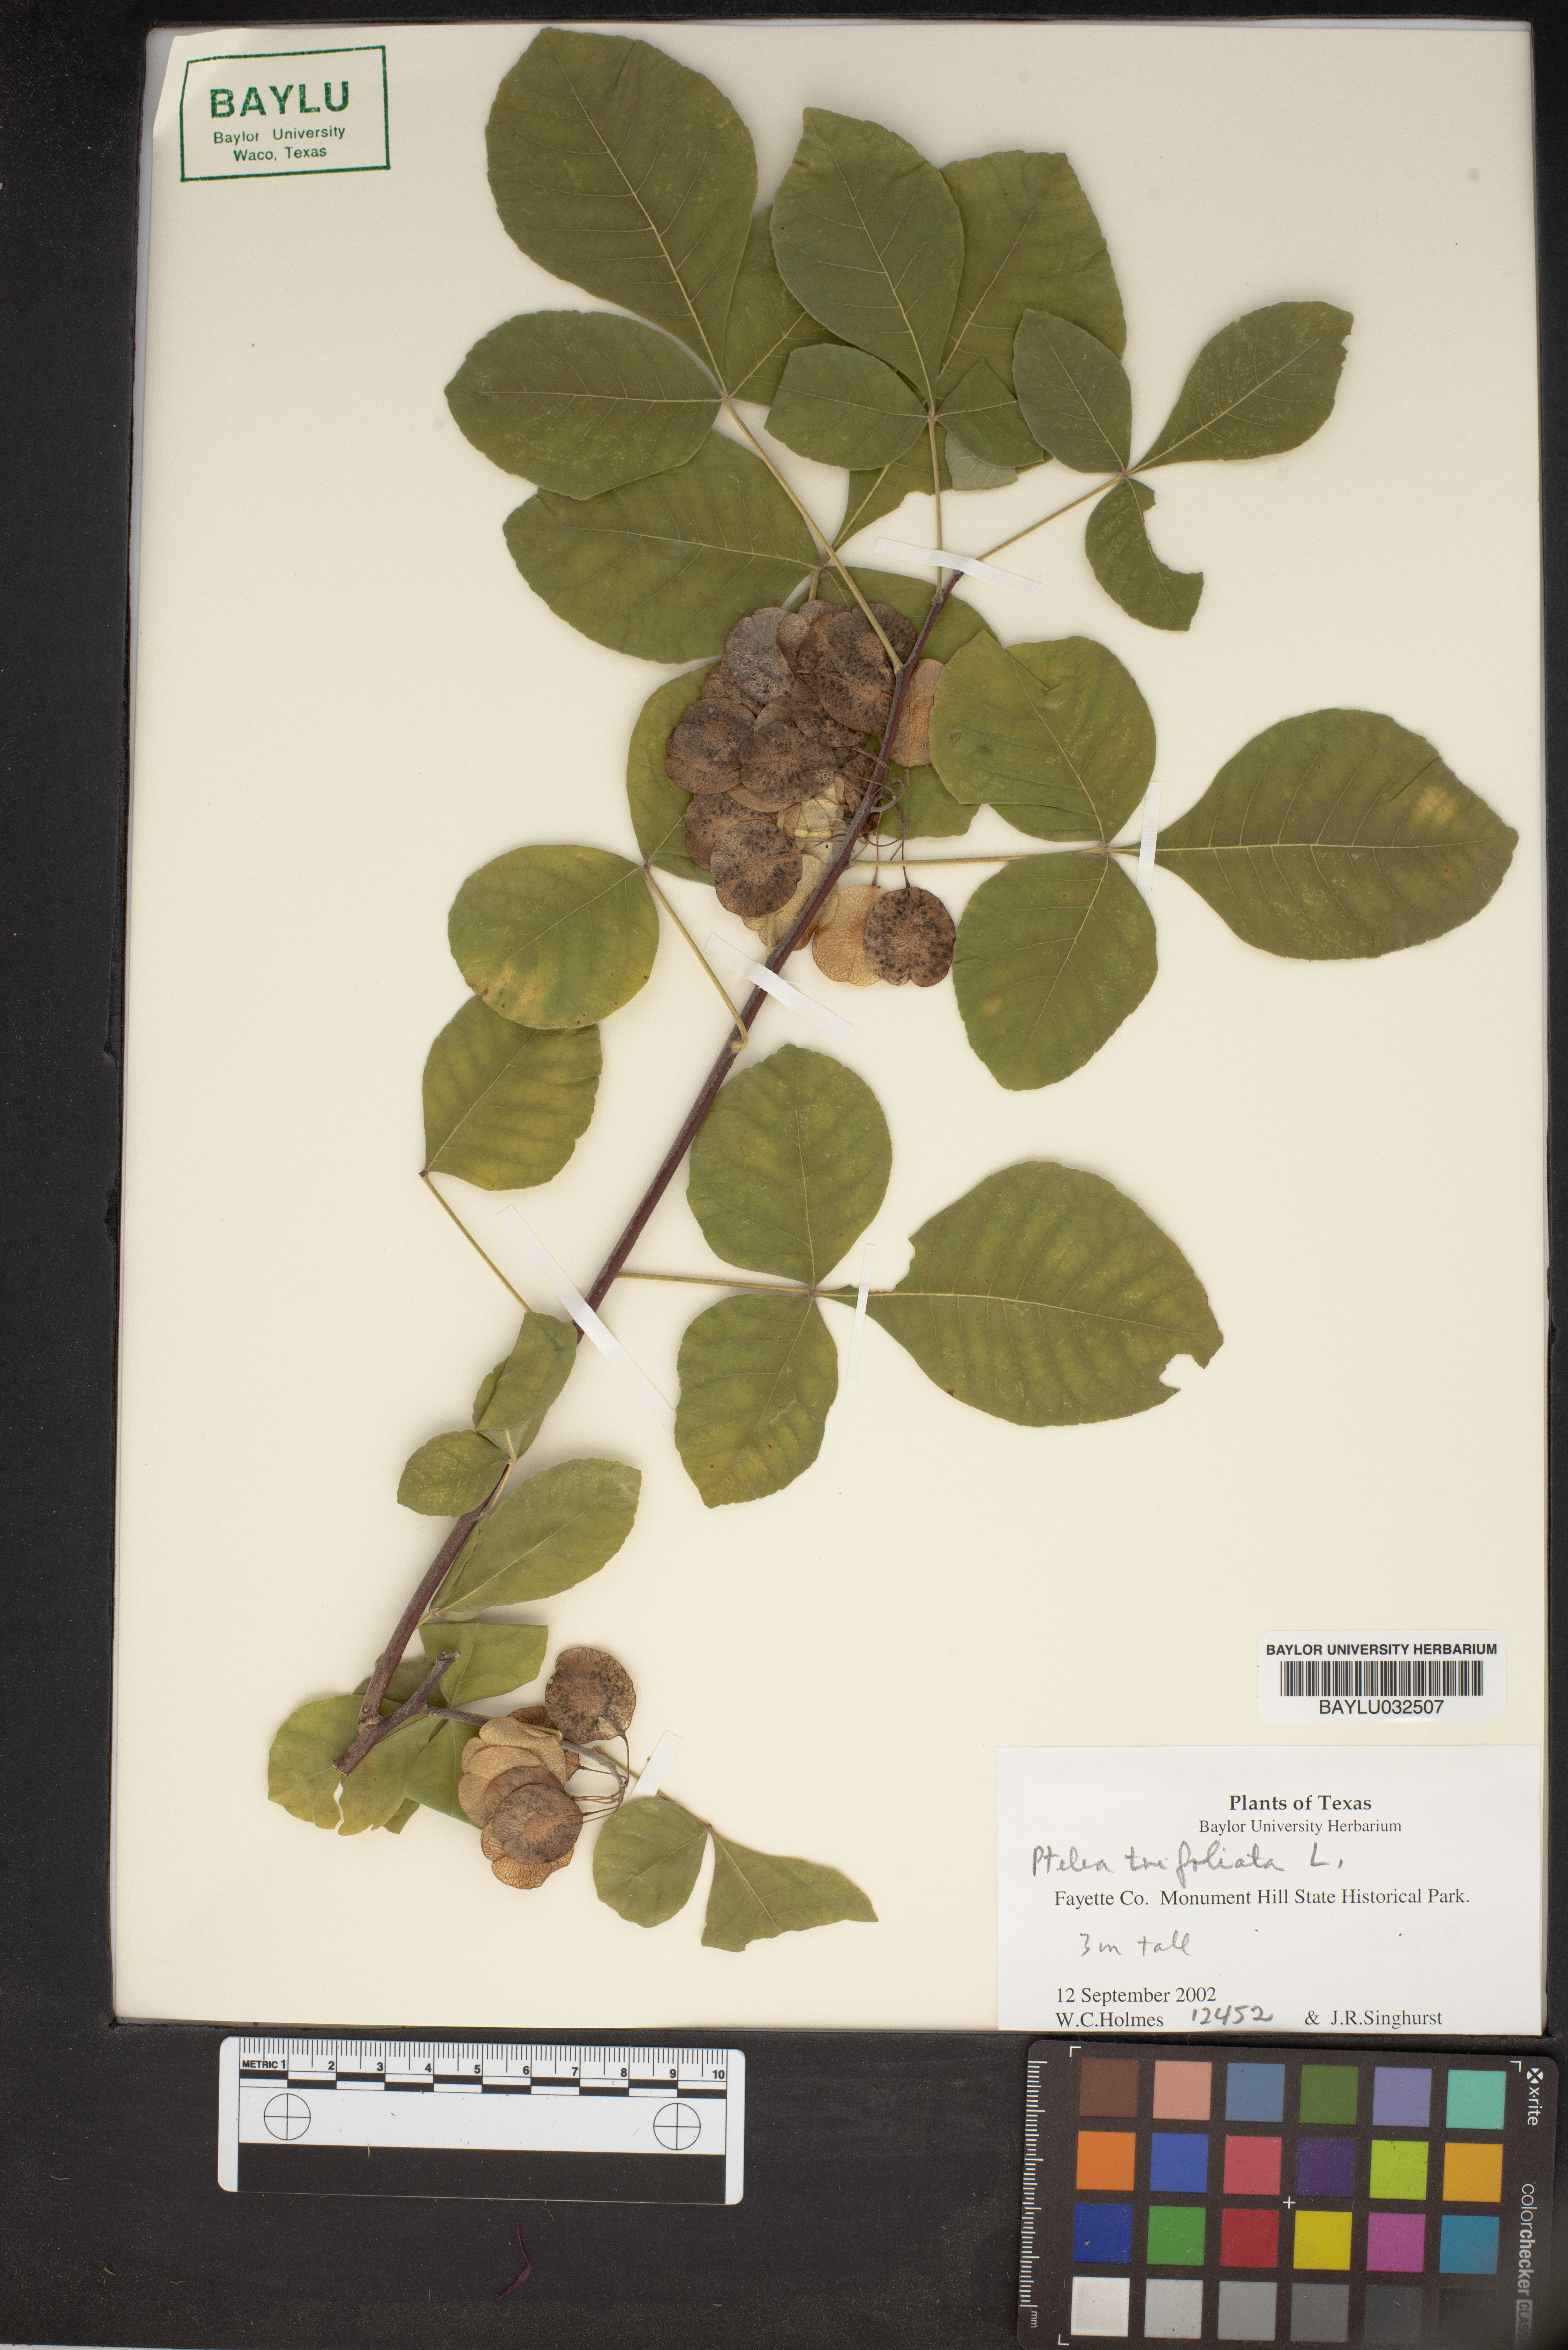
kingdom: Plantae
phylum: Tracheophyta
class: Magnoliopsida
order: Sapindales
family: Rutaceae
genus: Ptelea
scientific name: Ptelea trifoliata
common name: Common hop-tree
